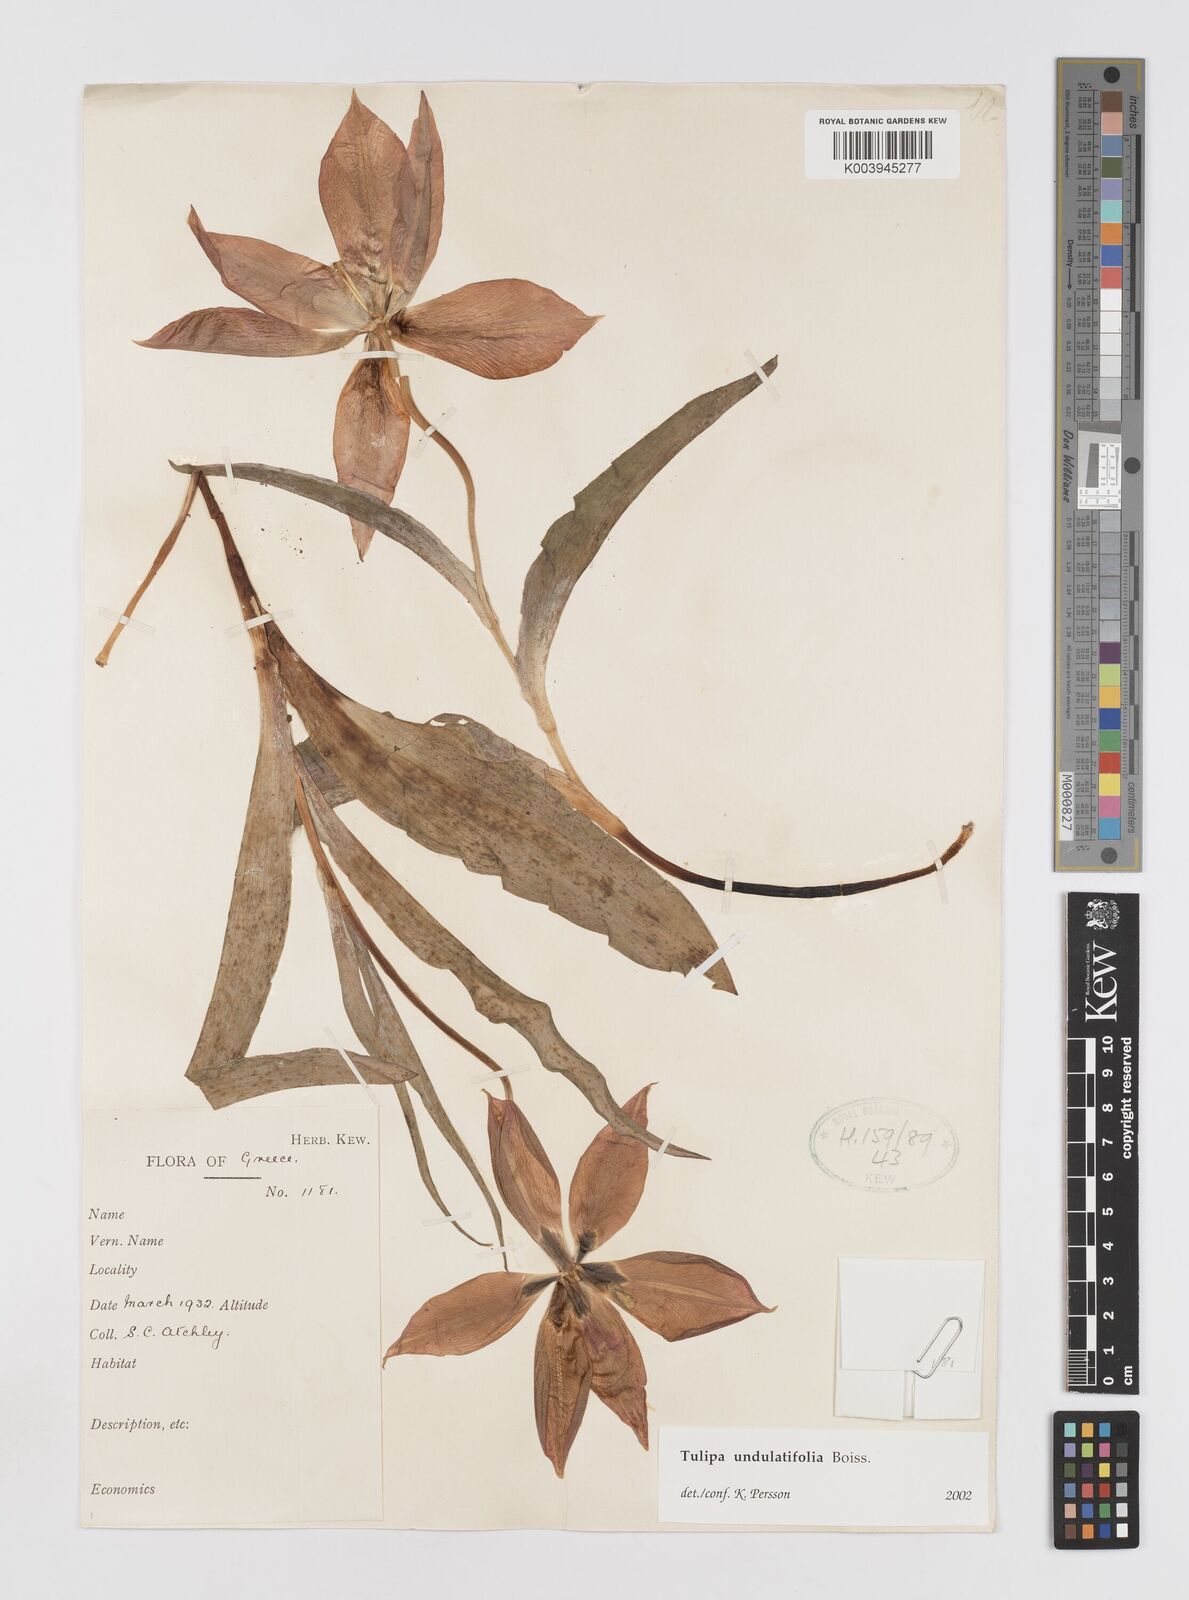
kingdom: Plantae
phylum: Tracheophyta
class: Liliopsida
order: Liliales
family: Liliaceae
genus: Tulipa
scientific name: Tulipa undulatifolia
